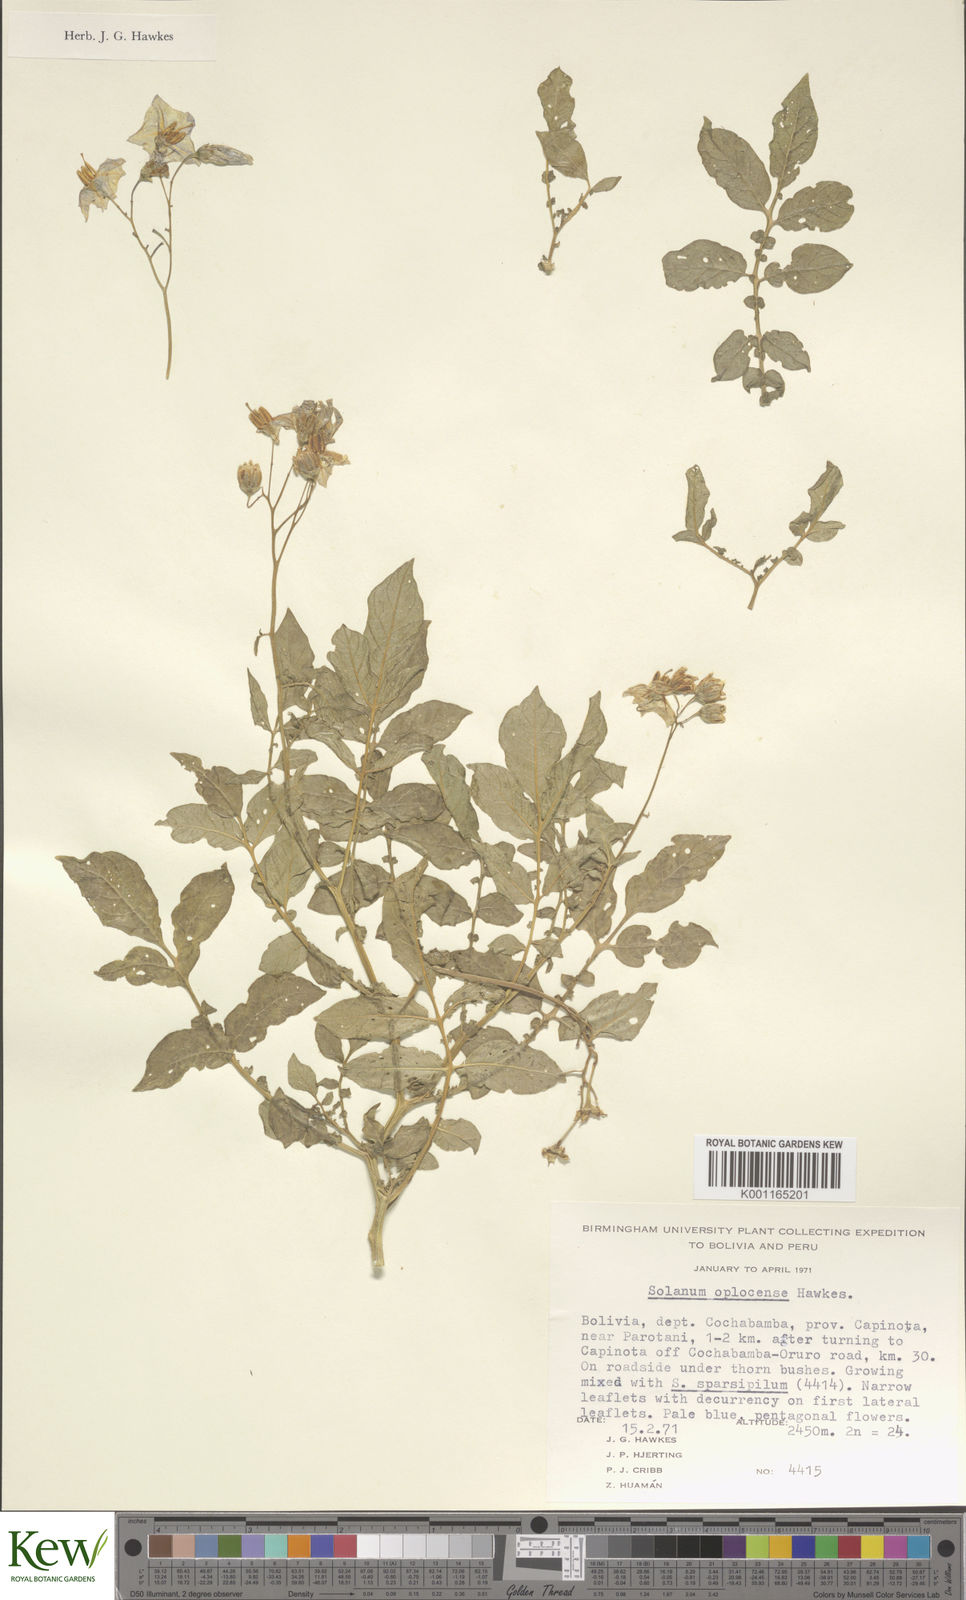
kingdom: Plantae
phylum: Tracheophyta
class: Magnoliopsida
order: Solanales
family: Solanaceae
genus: Solanum
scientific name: Solanum brevicaule
